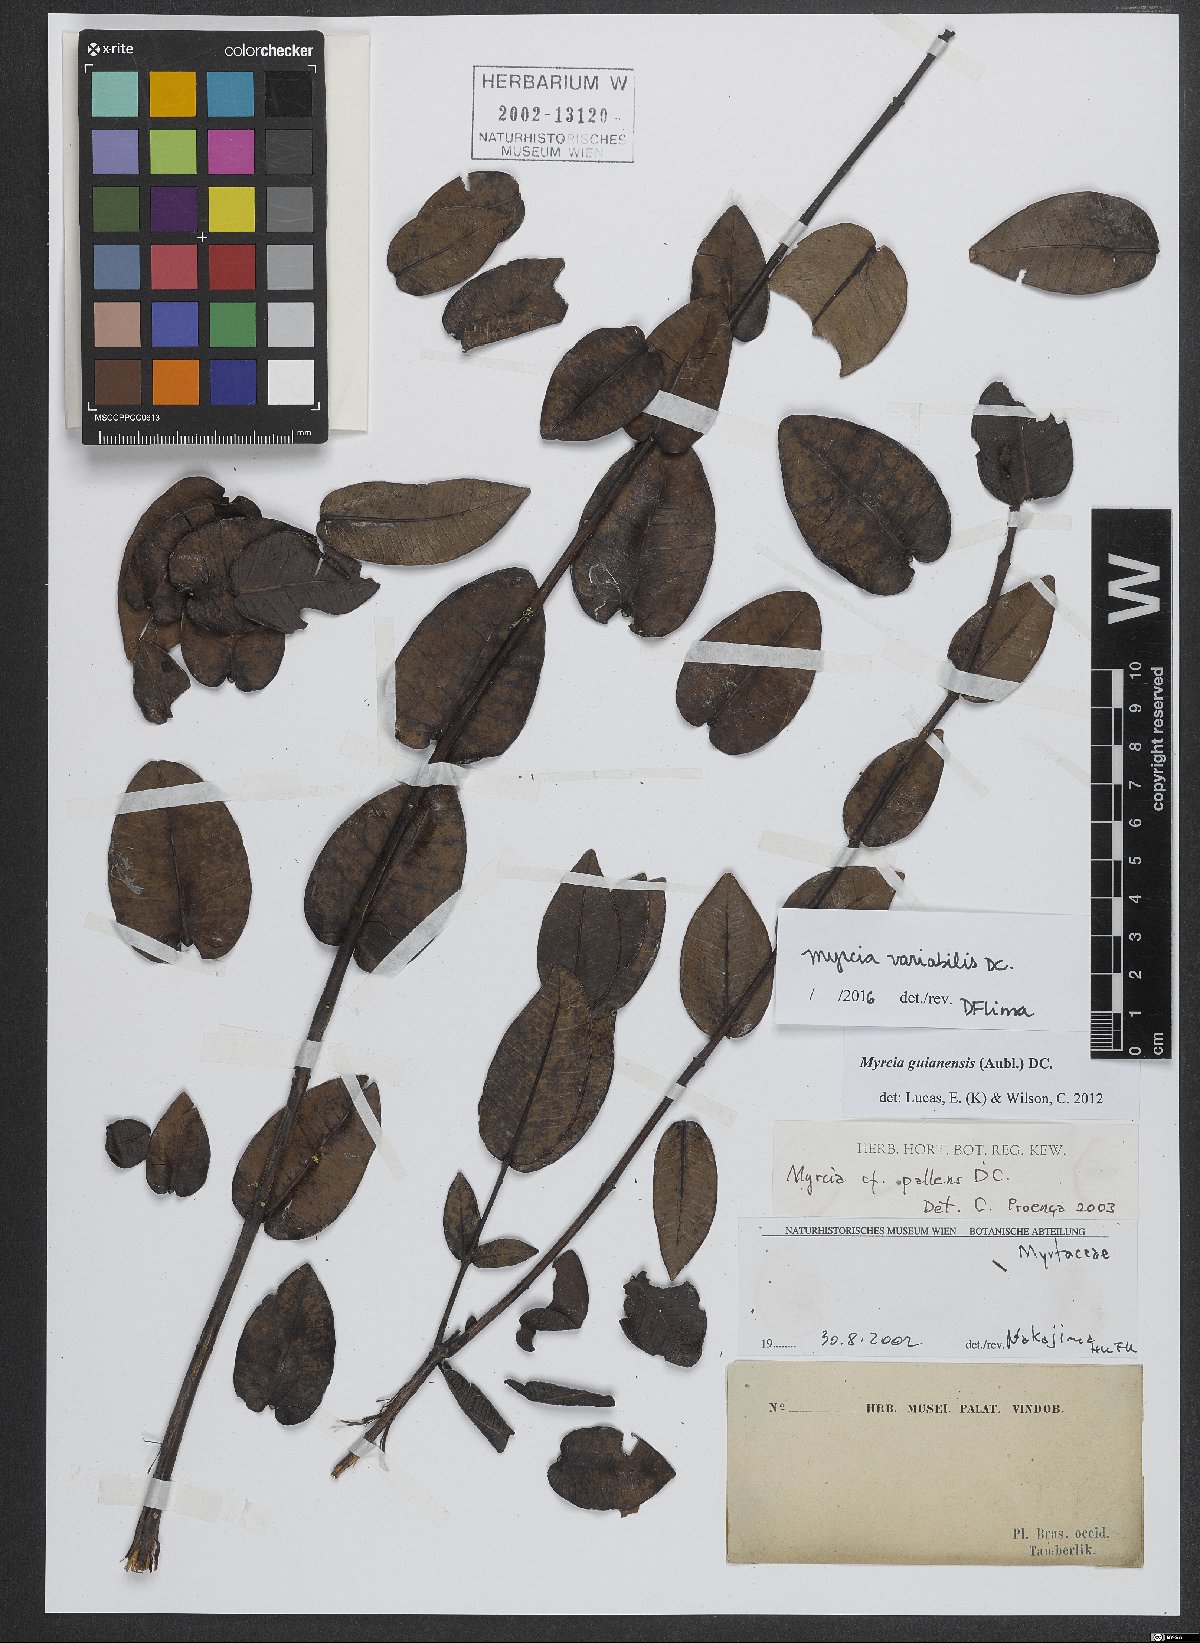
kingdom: Plantae
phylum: Tracheophyta
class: Magnoliopsida
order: Myrtales
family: Myrtaceae
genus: Myrcia
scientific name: Myrcia variabilis
